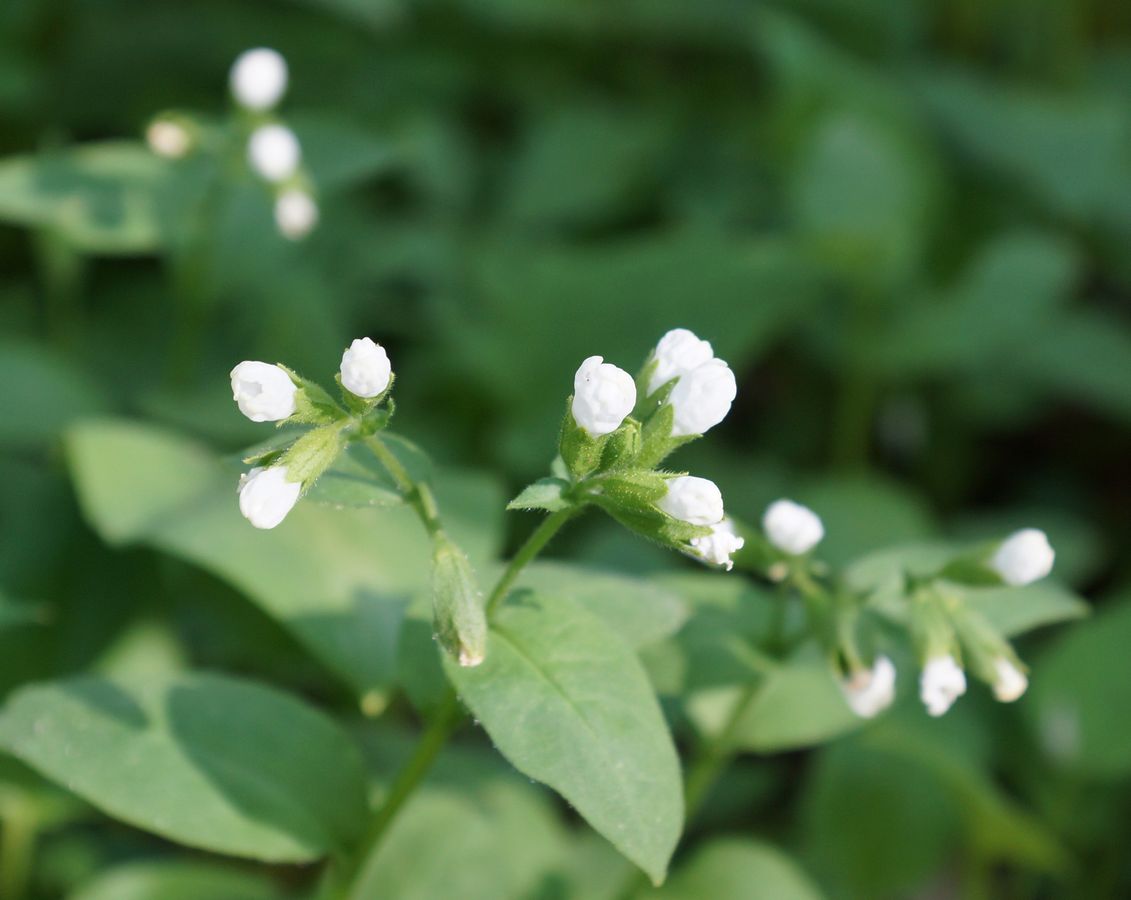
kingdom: Plantae
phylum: Tracheophyta
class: Magnoliopsida
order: Boraginales
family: Boraginaceae
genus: Pulmonaria
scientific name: Pulmonaria obscura
